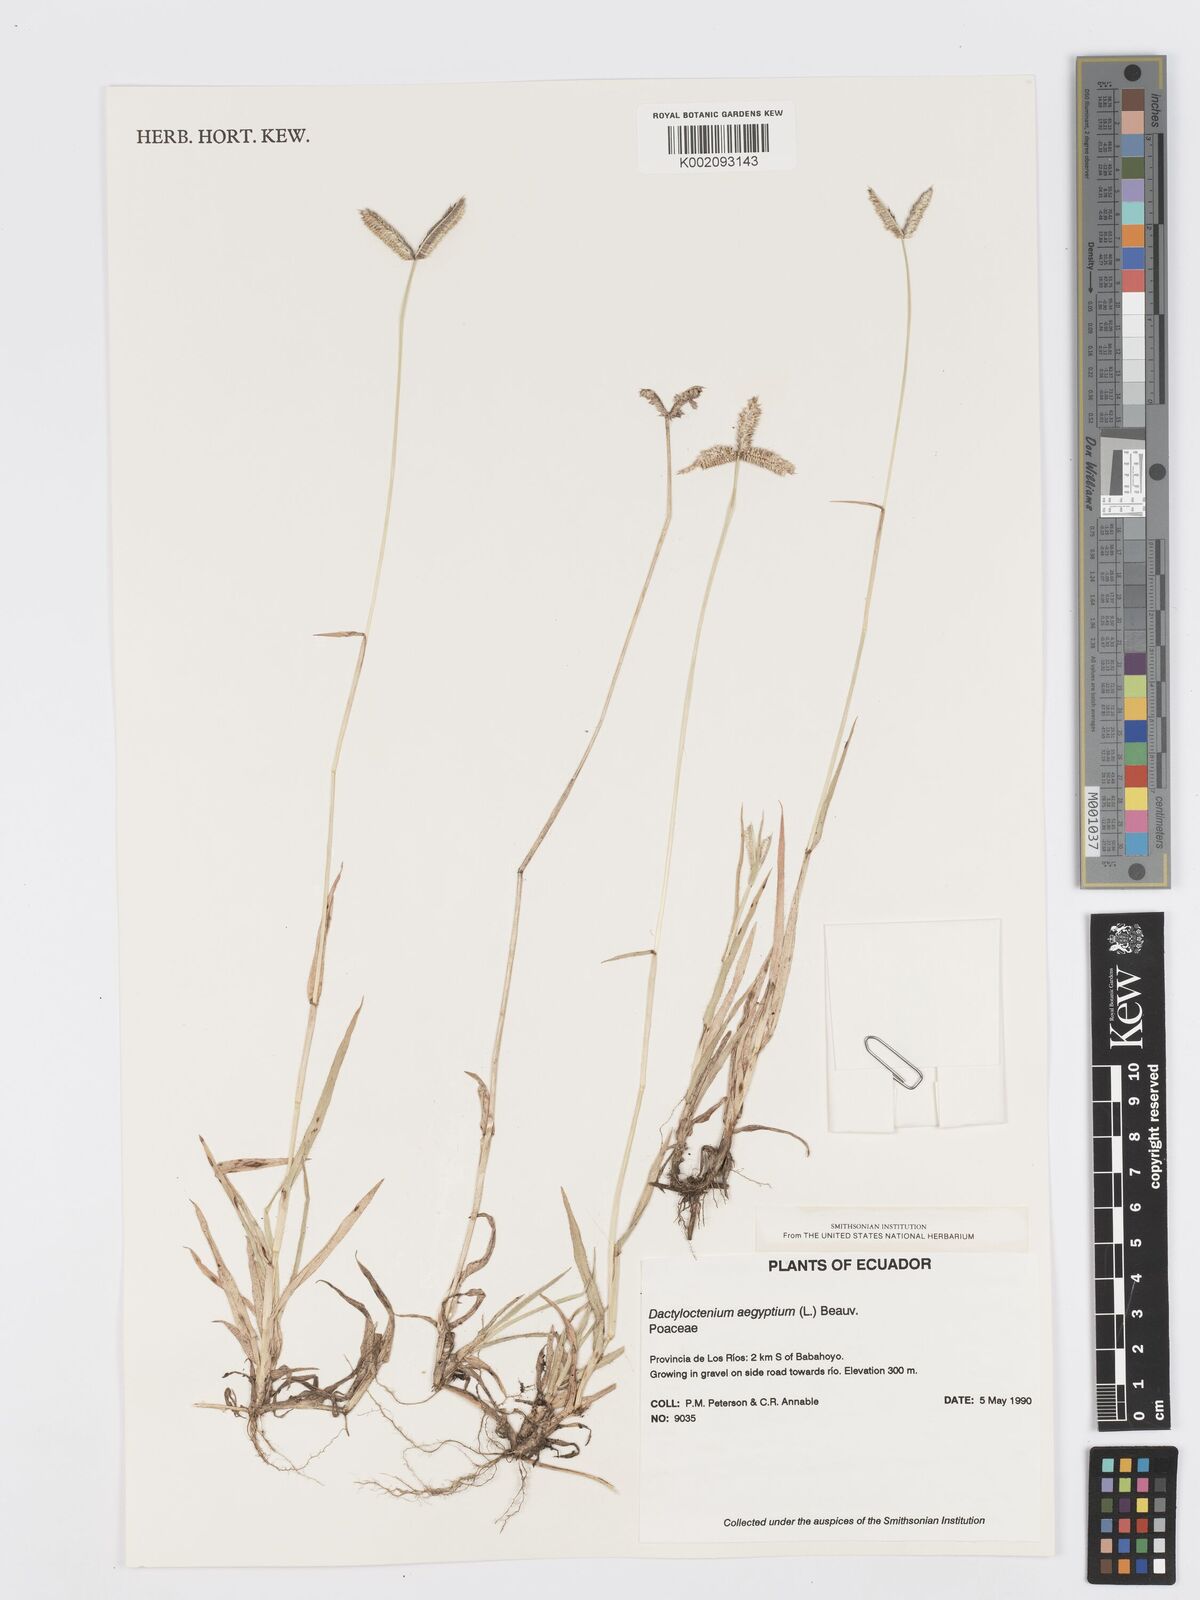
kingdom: Plantae
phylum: Tracheophyta
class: Liliopsida
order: Poales
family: Poaceae
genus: Dactyloctenium
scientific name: Dactyloctenium aegyptium
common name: Egyptian grass
